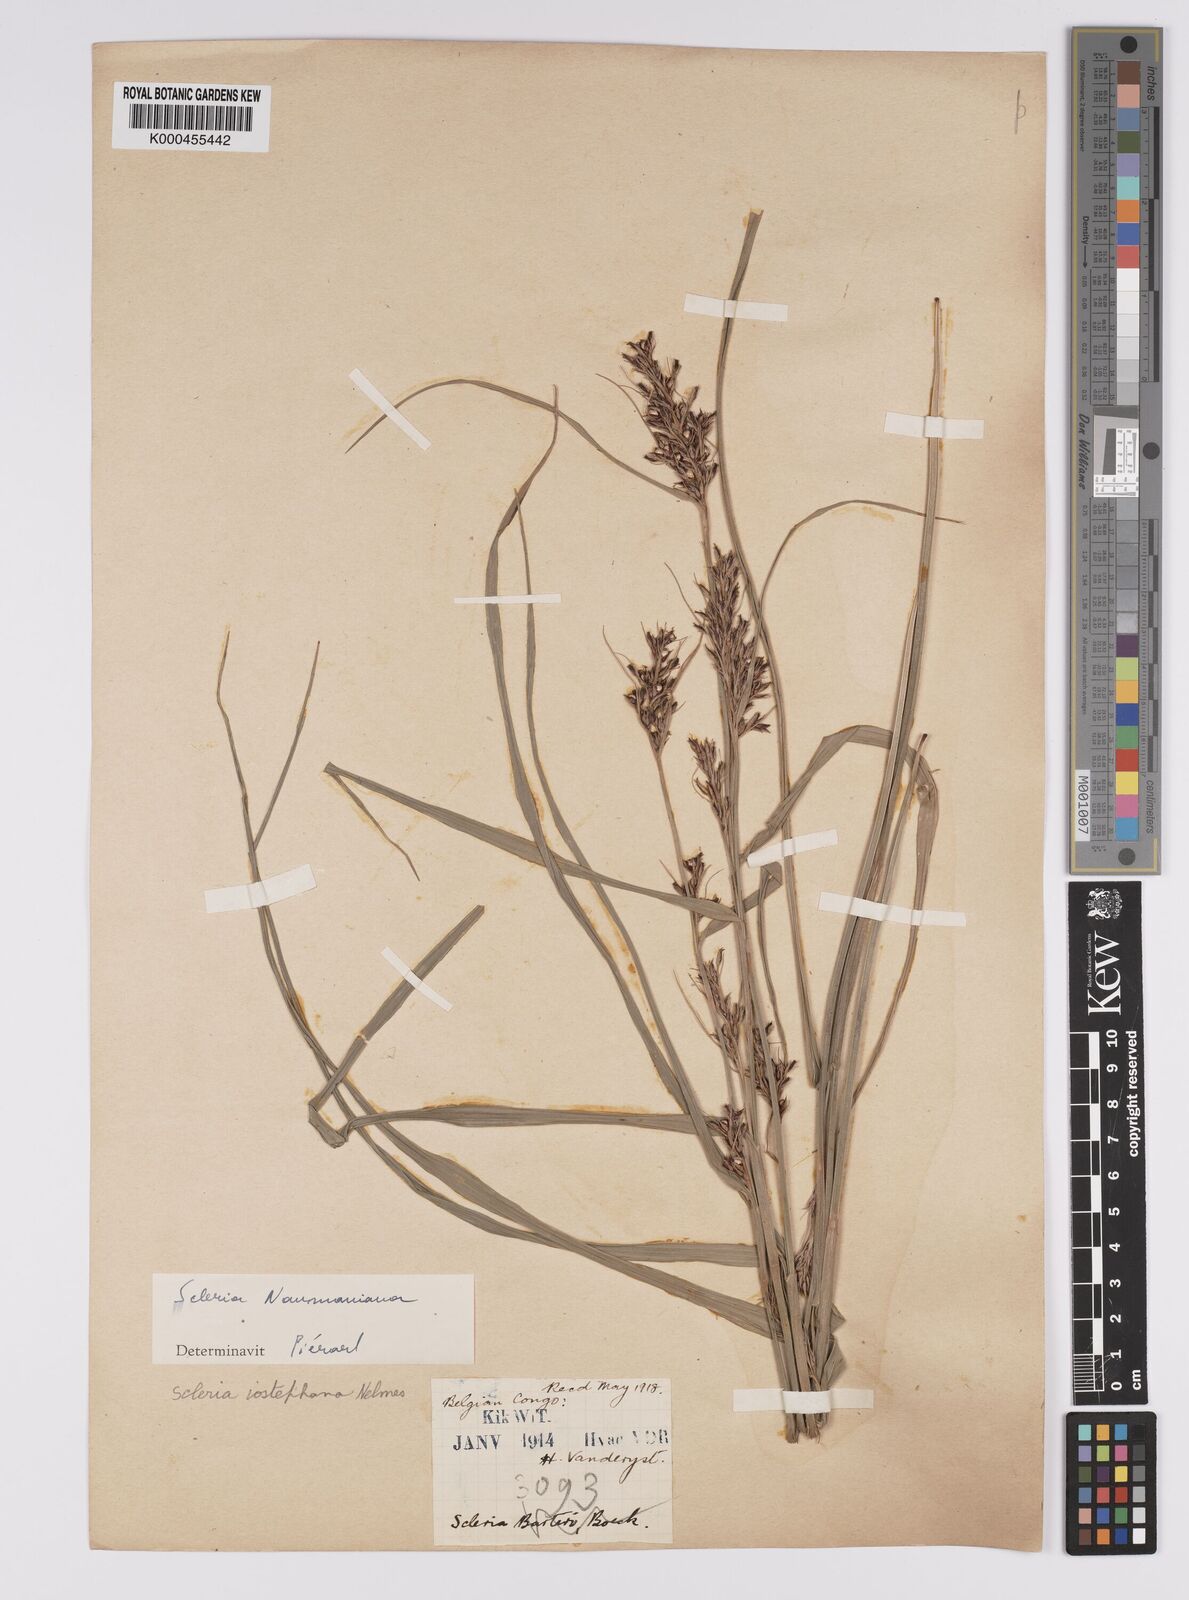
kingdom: Plantae
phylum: Tracheophyta
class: Liliopsida
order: Poales
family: Cyperaceae
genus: Scleria
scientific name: Scleria iostephana
